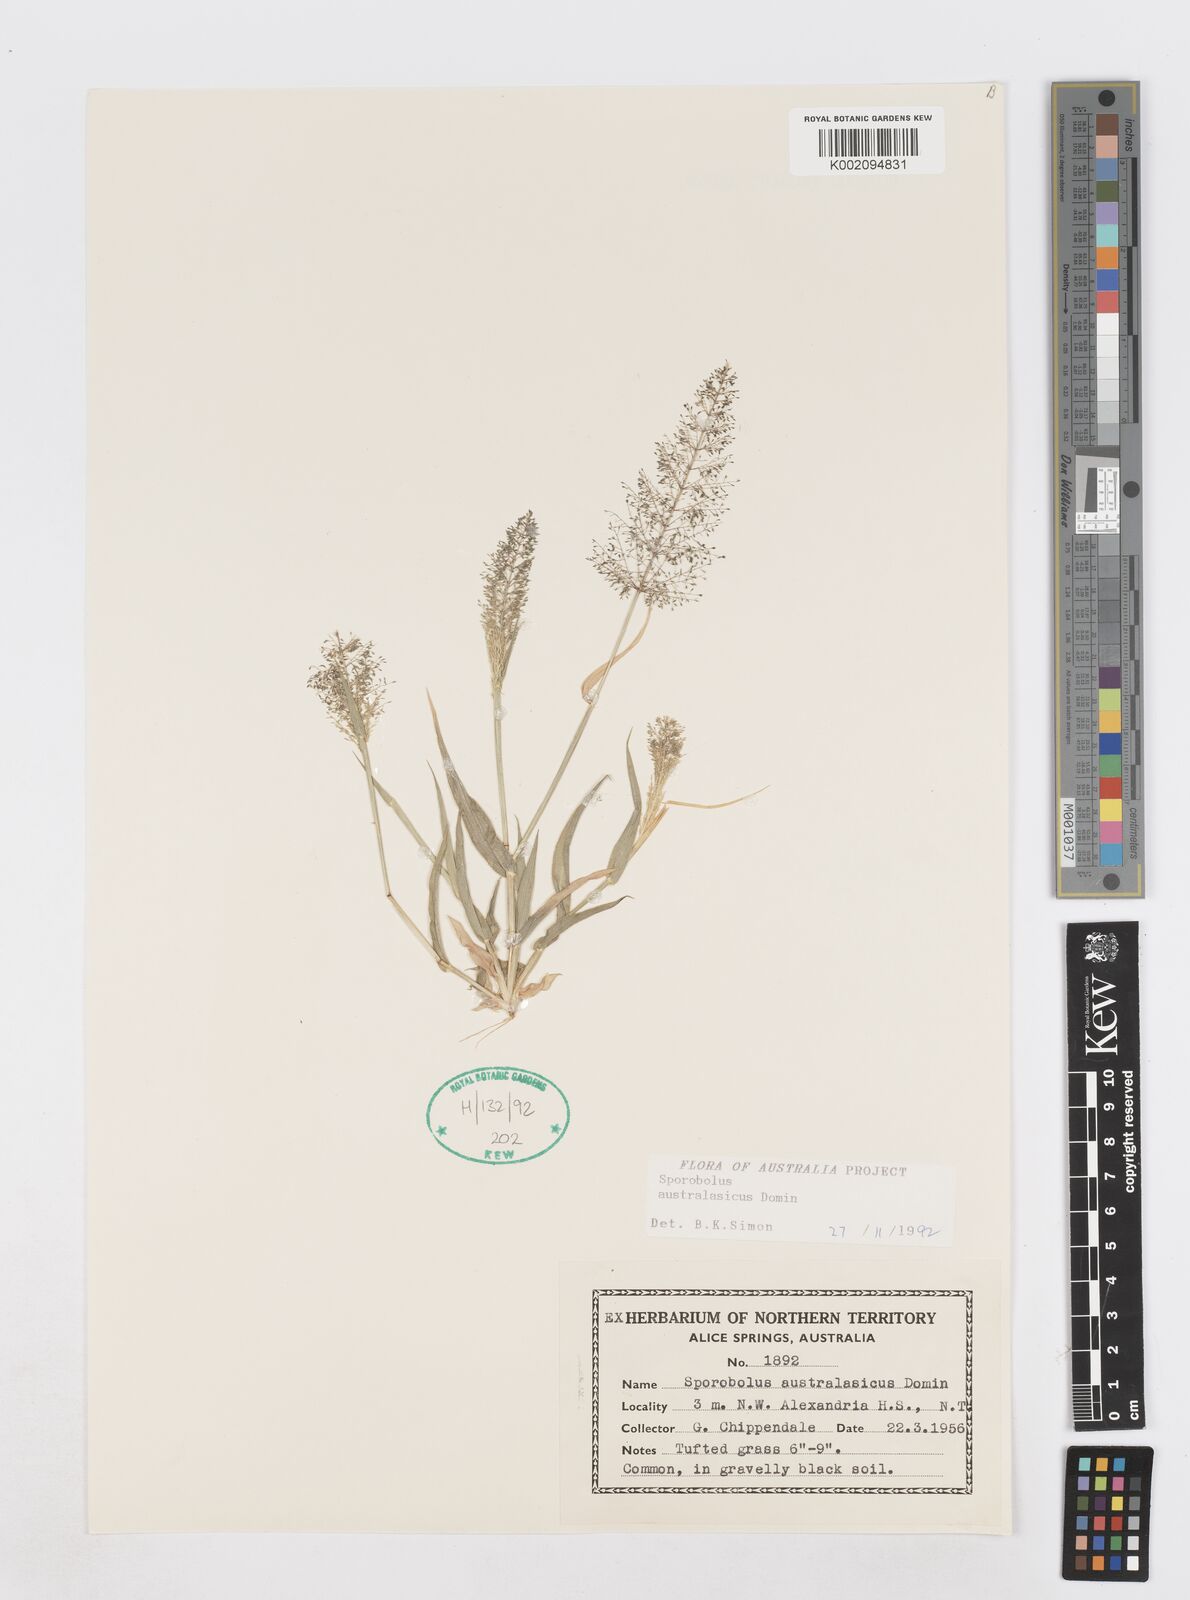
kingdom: Plantae
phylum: Tracheophyta
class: Liliopsida
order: Poales
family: Poaceae
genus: Sporobolus
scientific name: Sporobolus australasicus
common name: Australian dropseed
